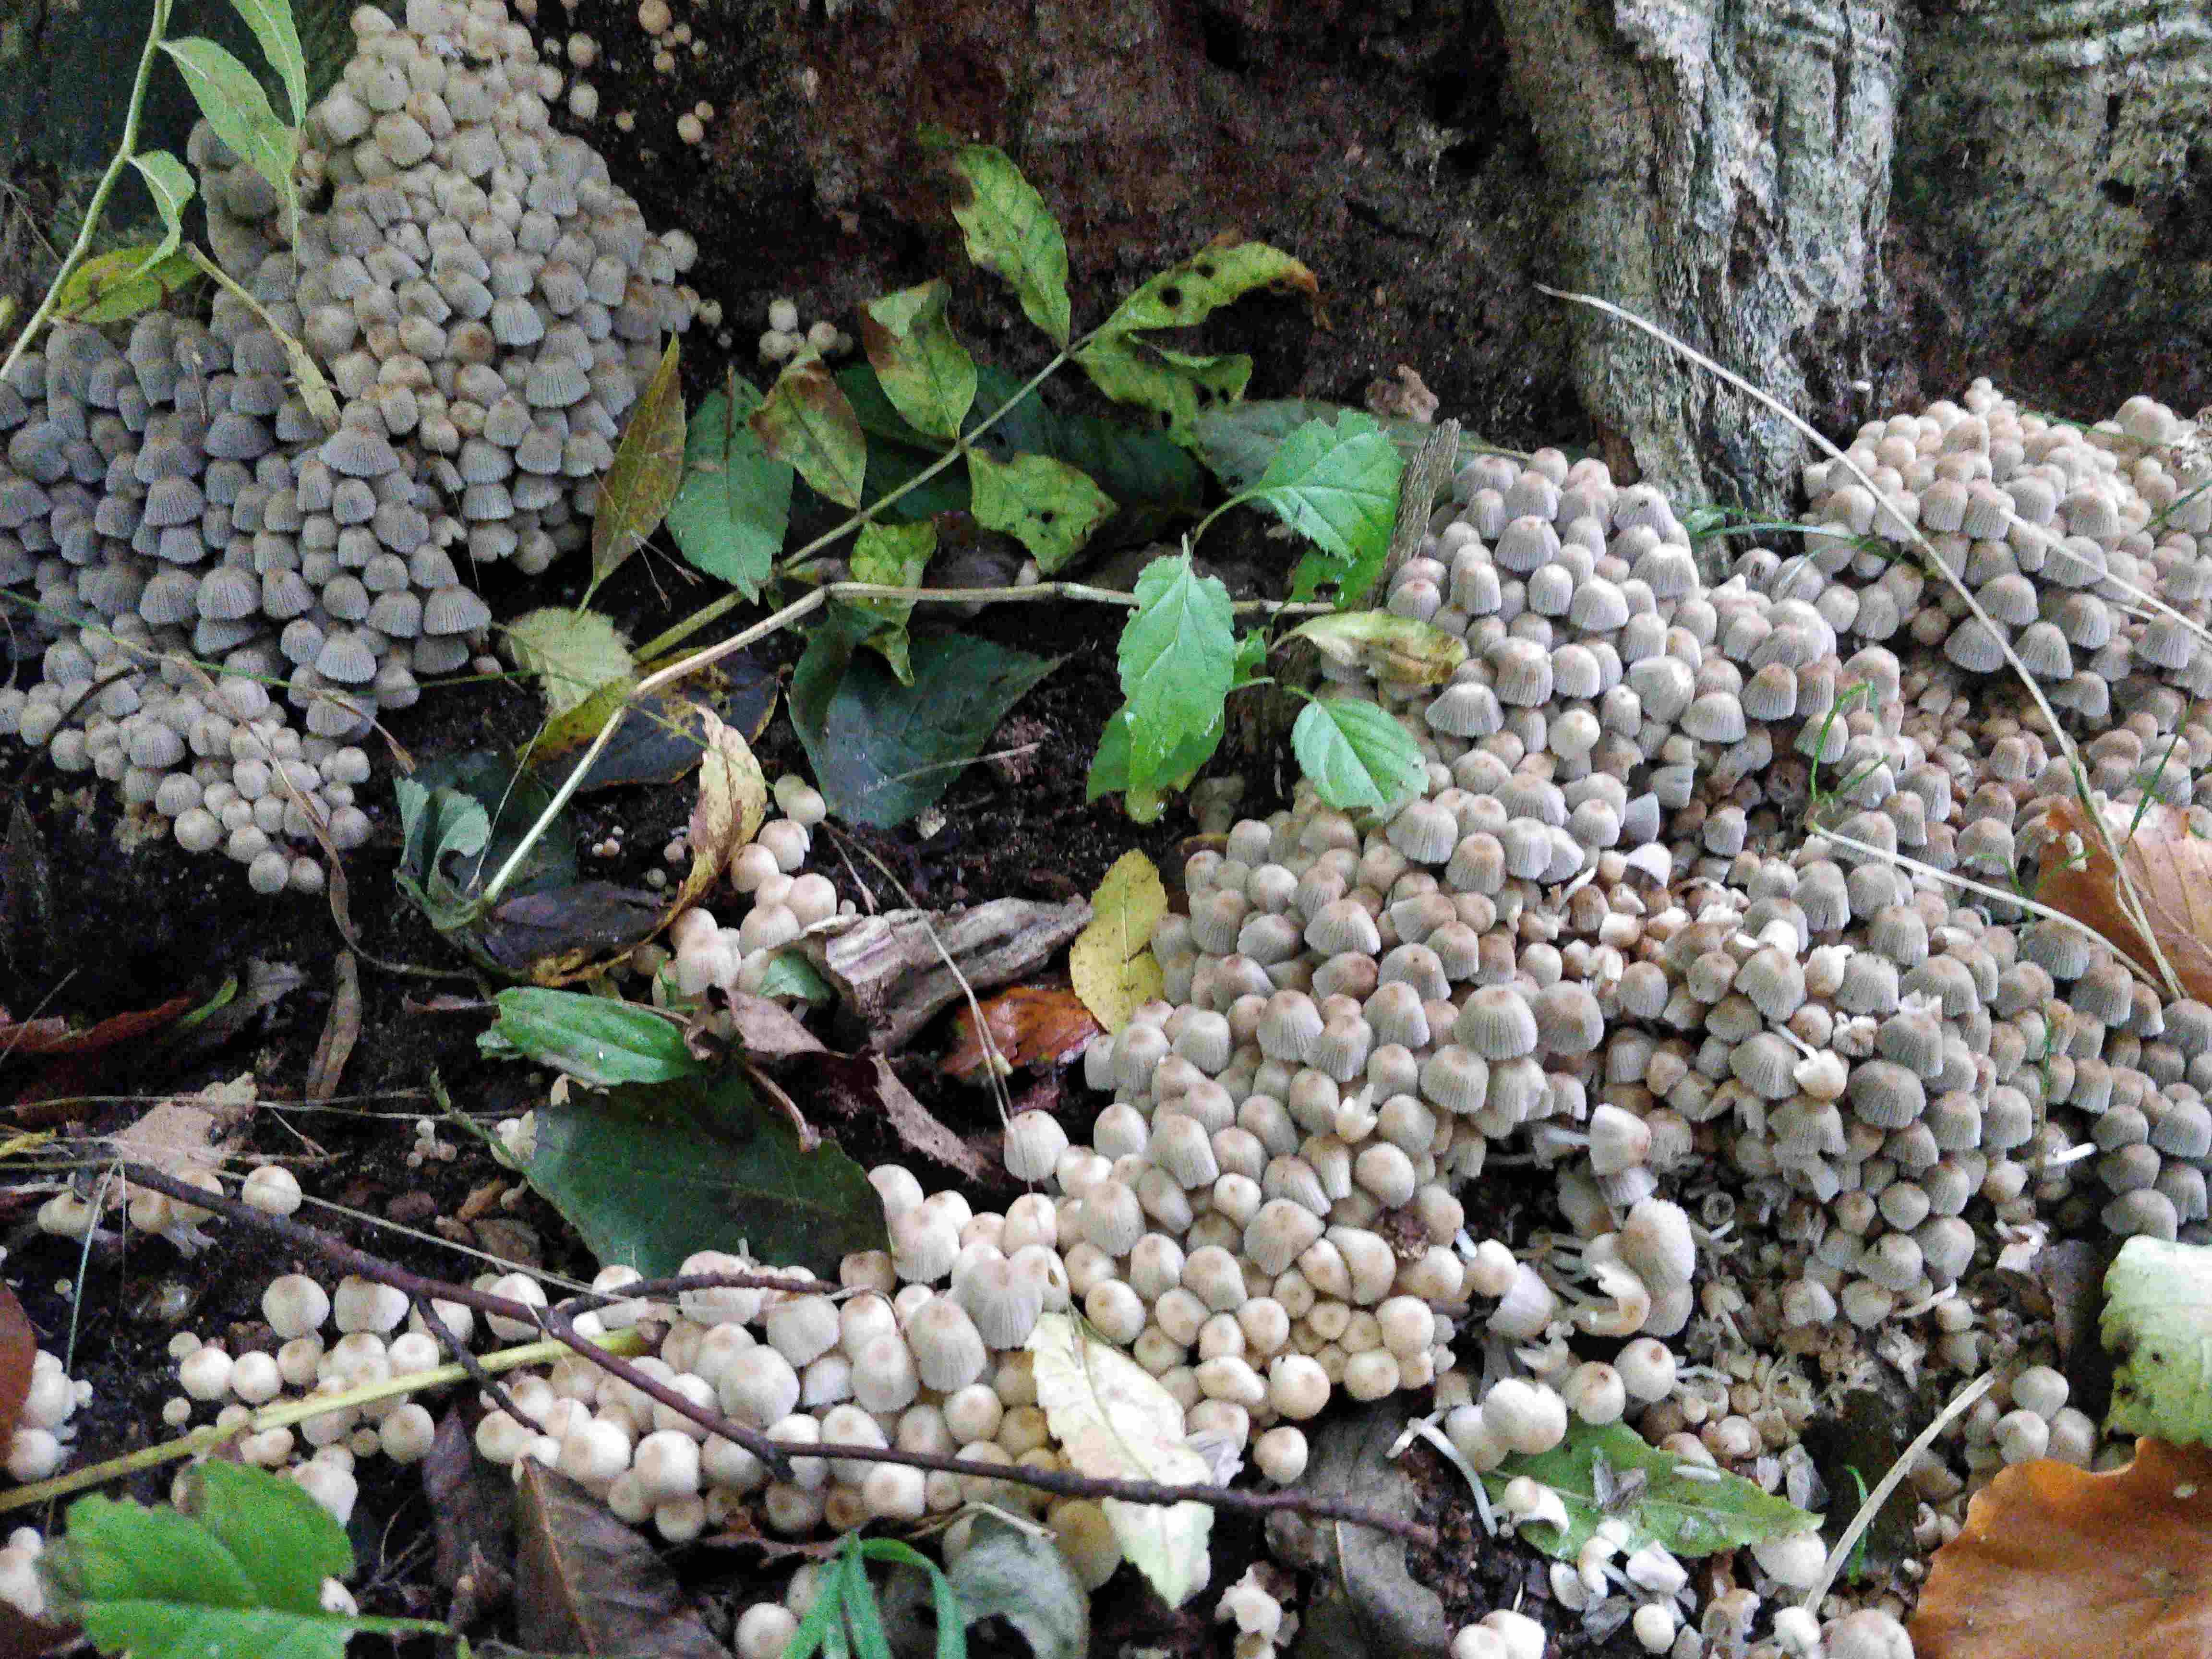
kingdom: Fungi
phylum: Basidiomycota
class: Agaricomycetes
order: Agaricales
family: Psathyrellaceae
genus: Coprinellus
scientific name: Coprinellus disseminatus
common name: bredsået blækhat
